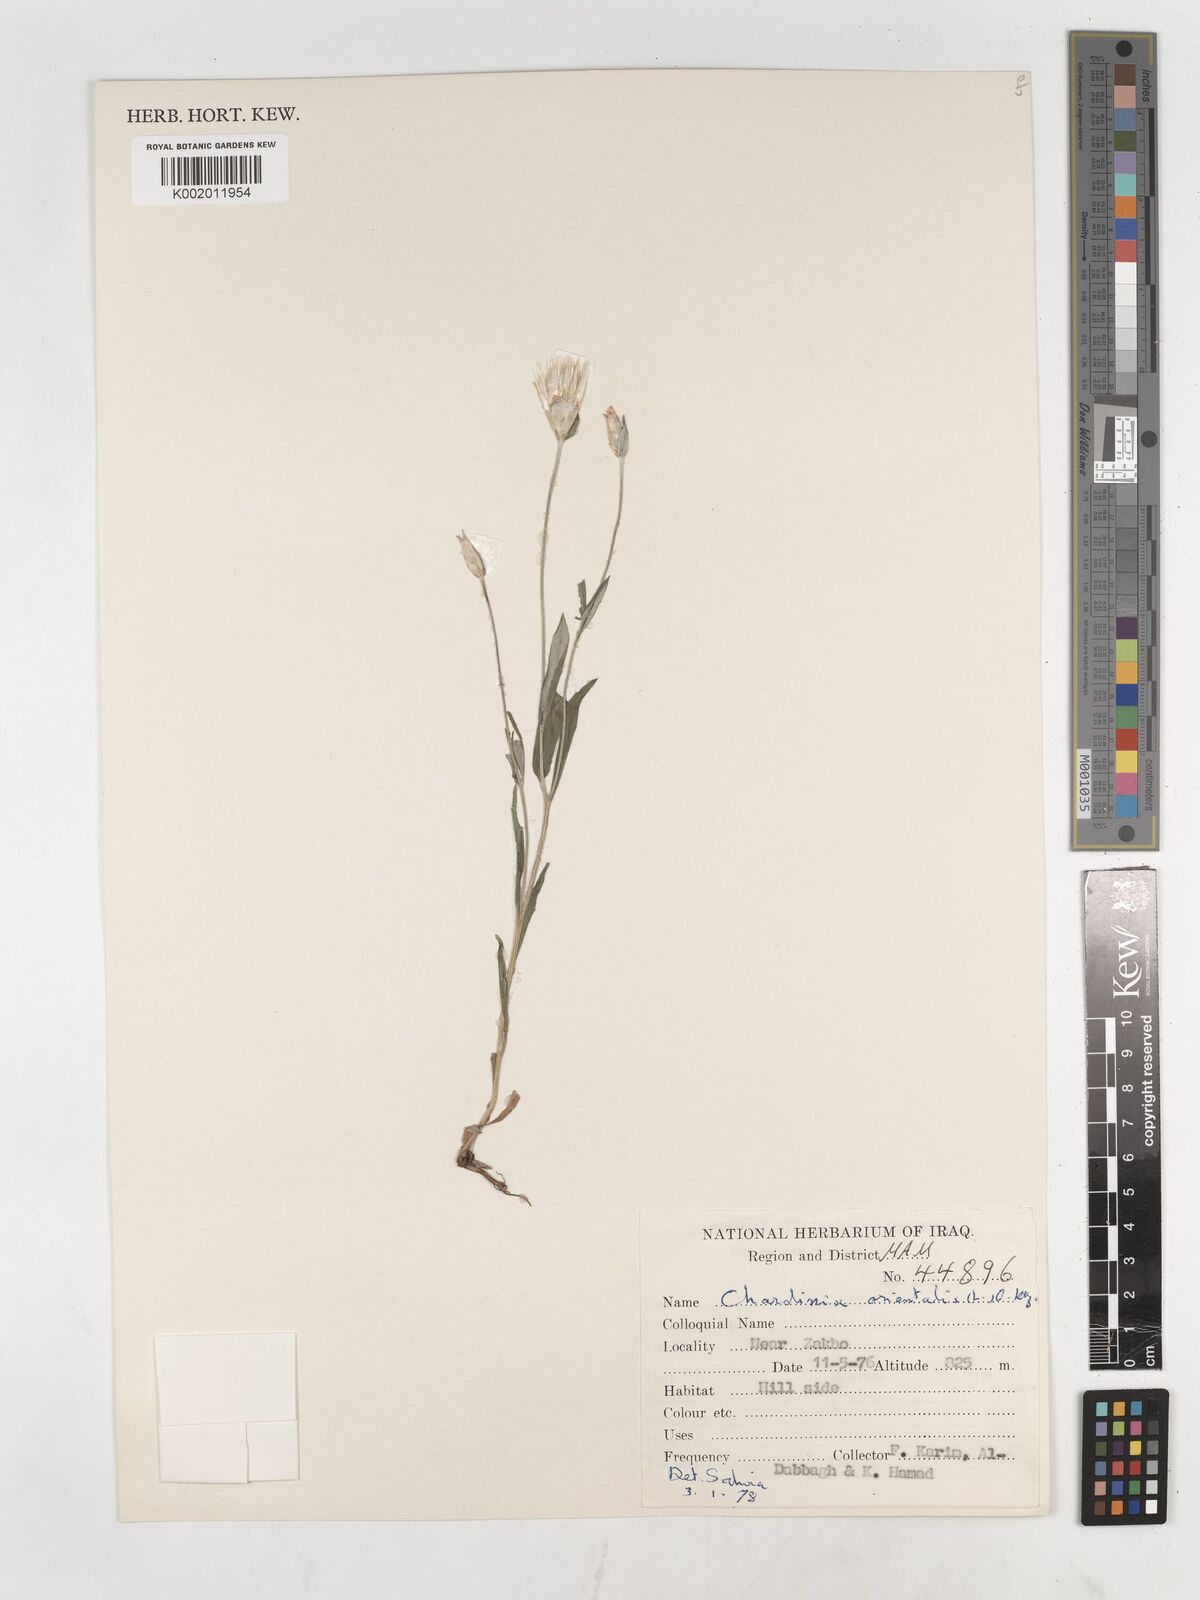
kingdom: Plantae
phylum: Tracheophyta
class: Magnoliopsida
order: Asterales
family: Asteraceae
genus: Chardinia
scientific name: Chardinia orientalis
